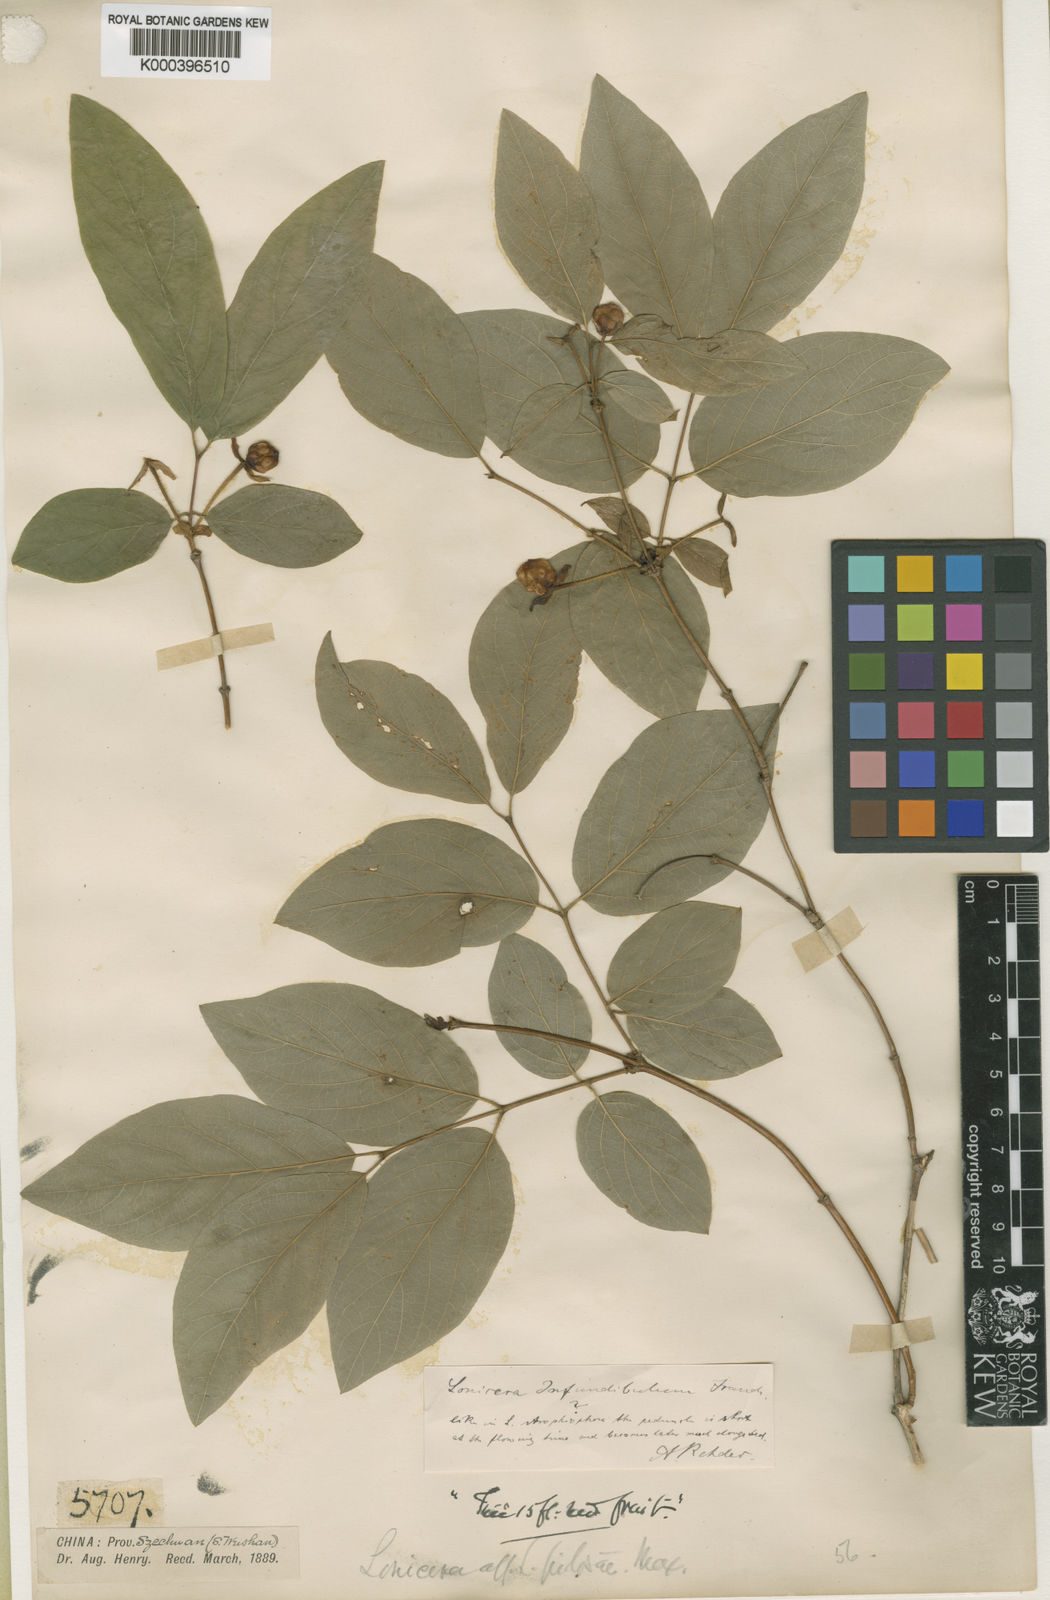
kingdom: Plantae
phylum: Tracheophyta
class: Magnoliopsida
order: Dipsacales
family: Caprifoliaceae
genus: Lonicera
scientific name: Lonicera elisae
